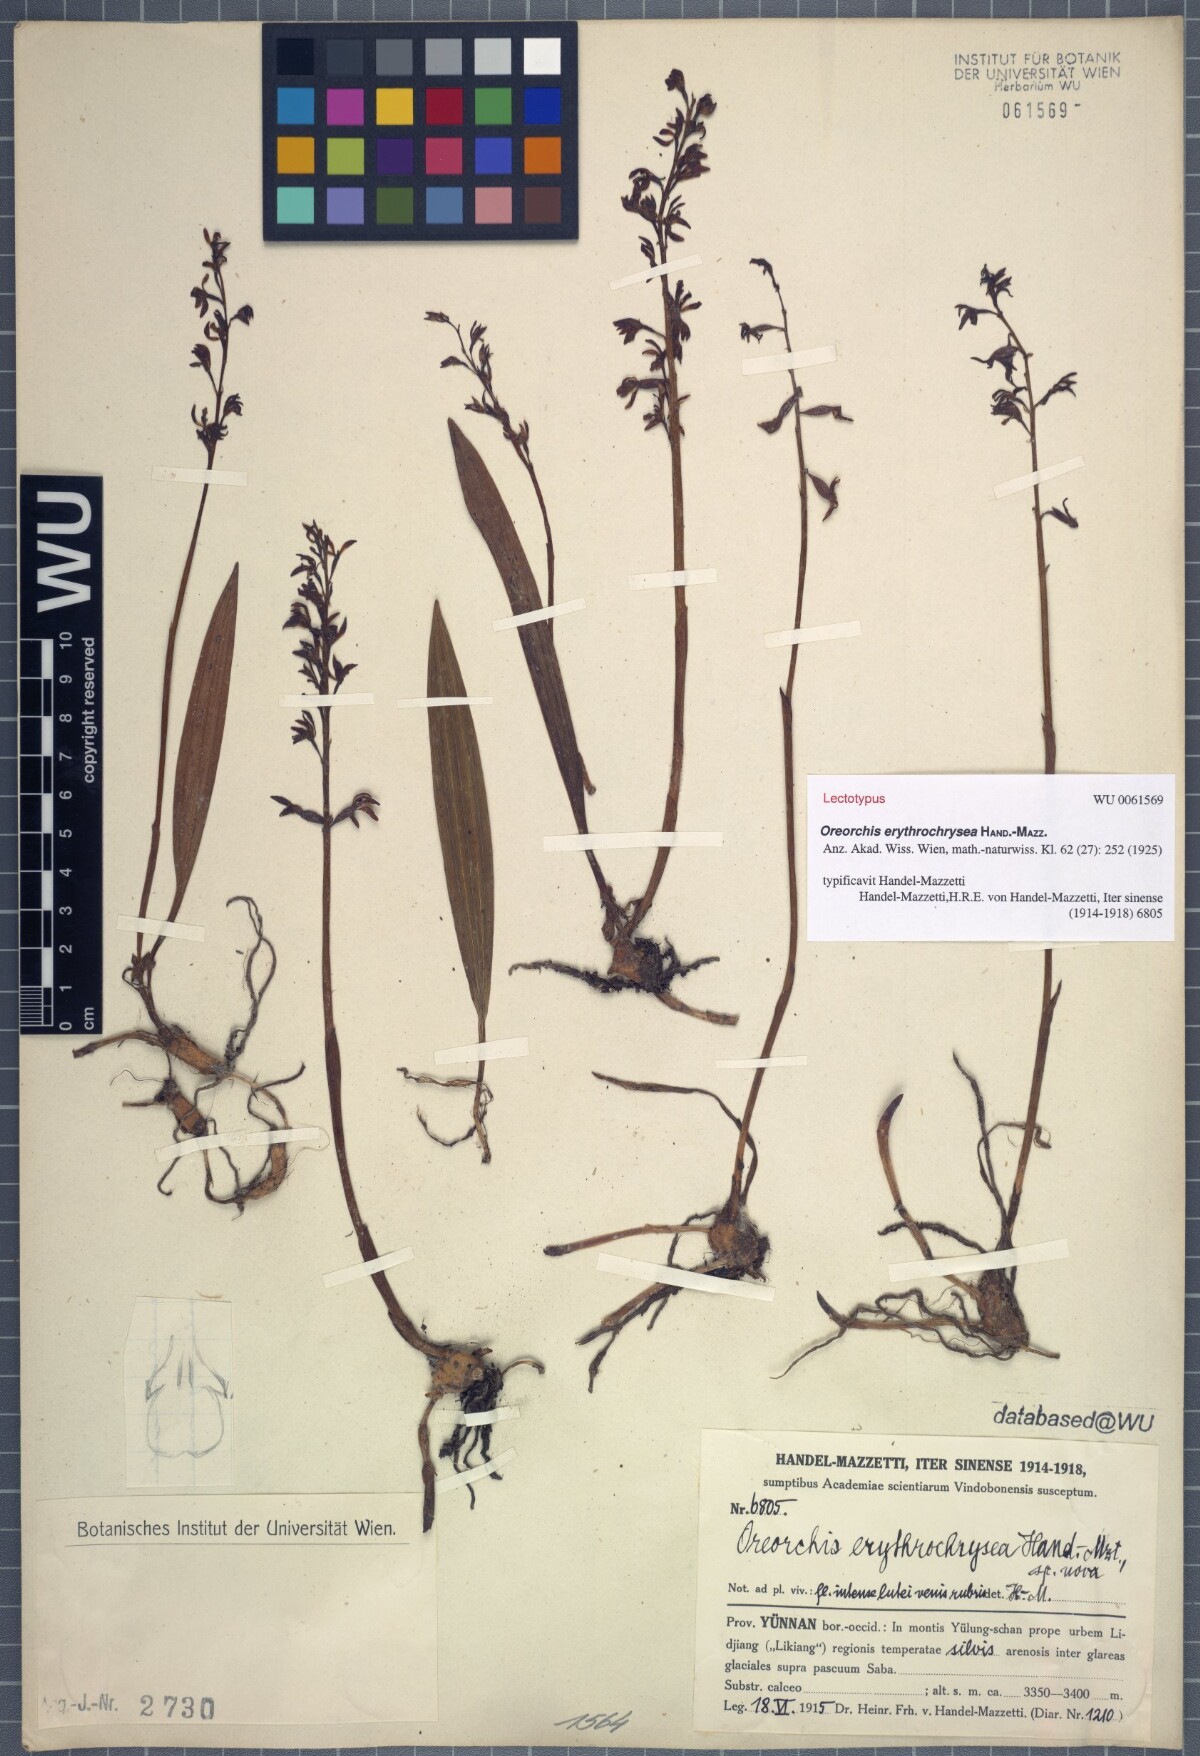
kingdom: Plantae
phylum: Tracheophyta
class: Liliopsida
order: Asparagales
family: Orchidaceae
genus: Oreorchis
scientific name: Oreorchis erythrochrysea
